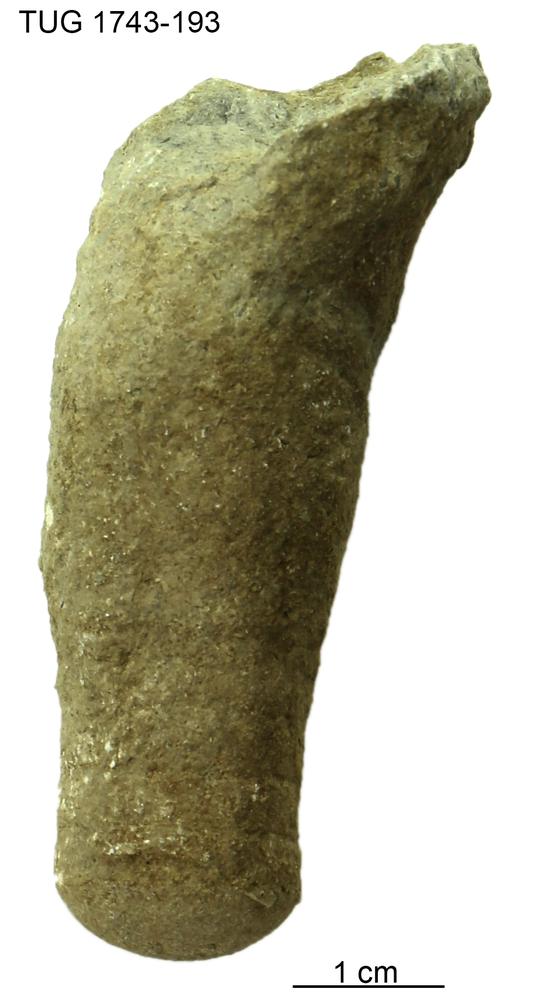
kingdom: Animalia
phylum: Mollusca
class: Cephalopoda
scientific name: Cephalopoda
